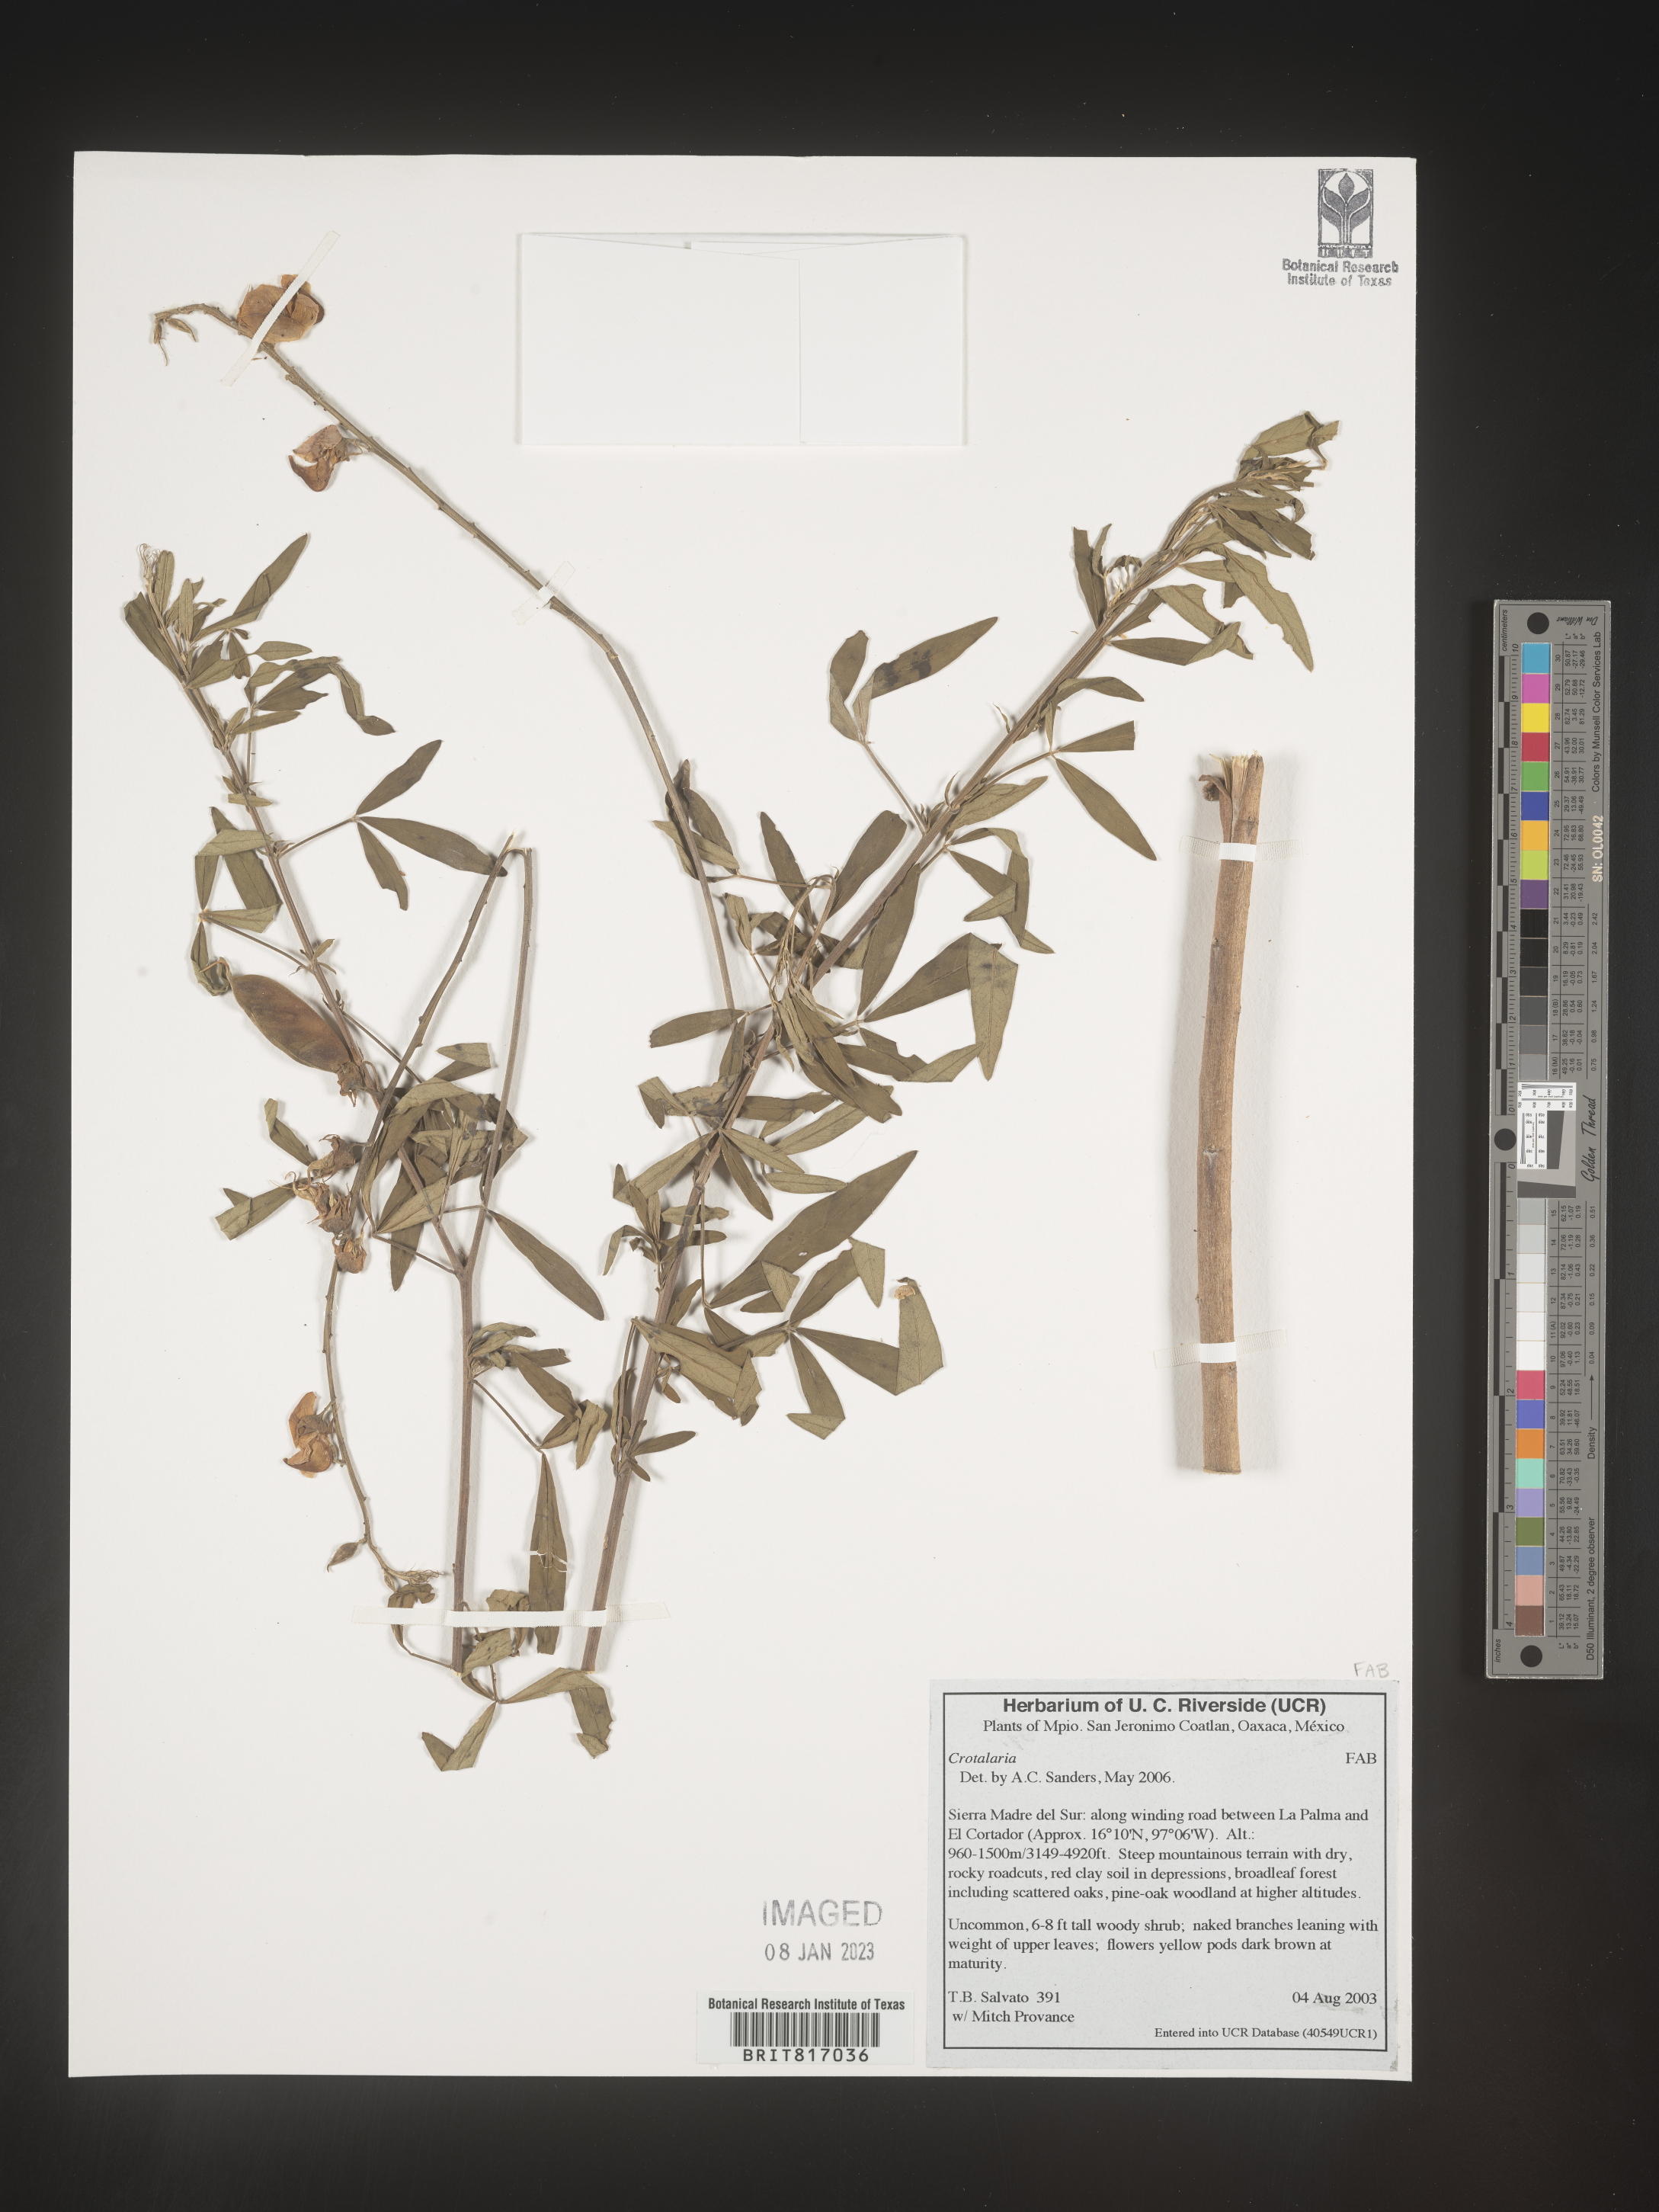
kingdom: Plantae
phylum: Tracheophyta
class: Magnoliopsida
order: Fabales
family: Fabaceae
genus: Crotalaria
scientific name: Crotalaria
